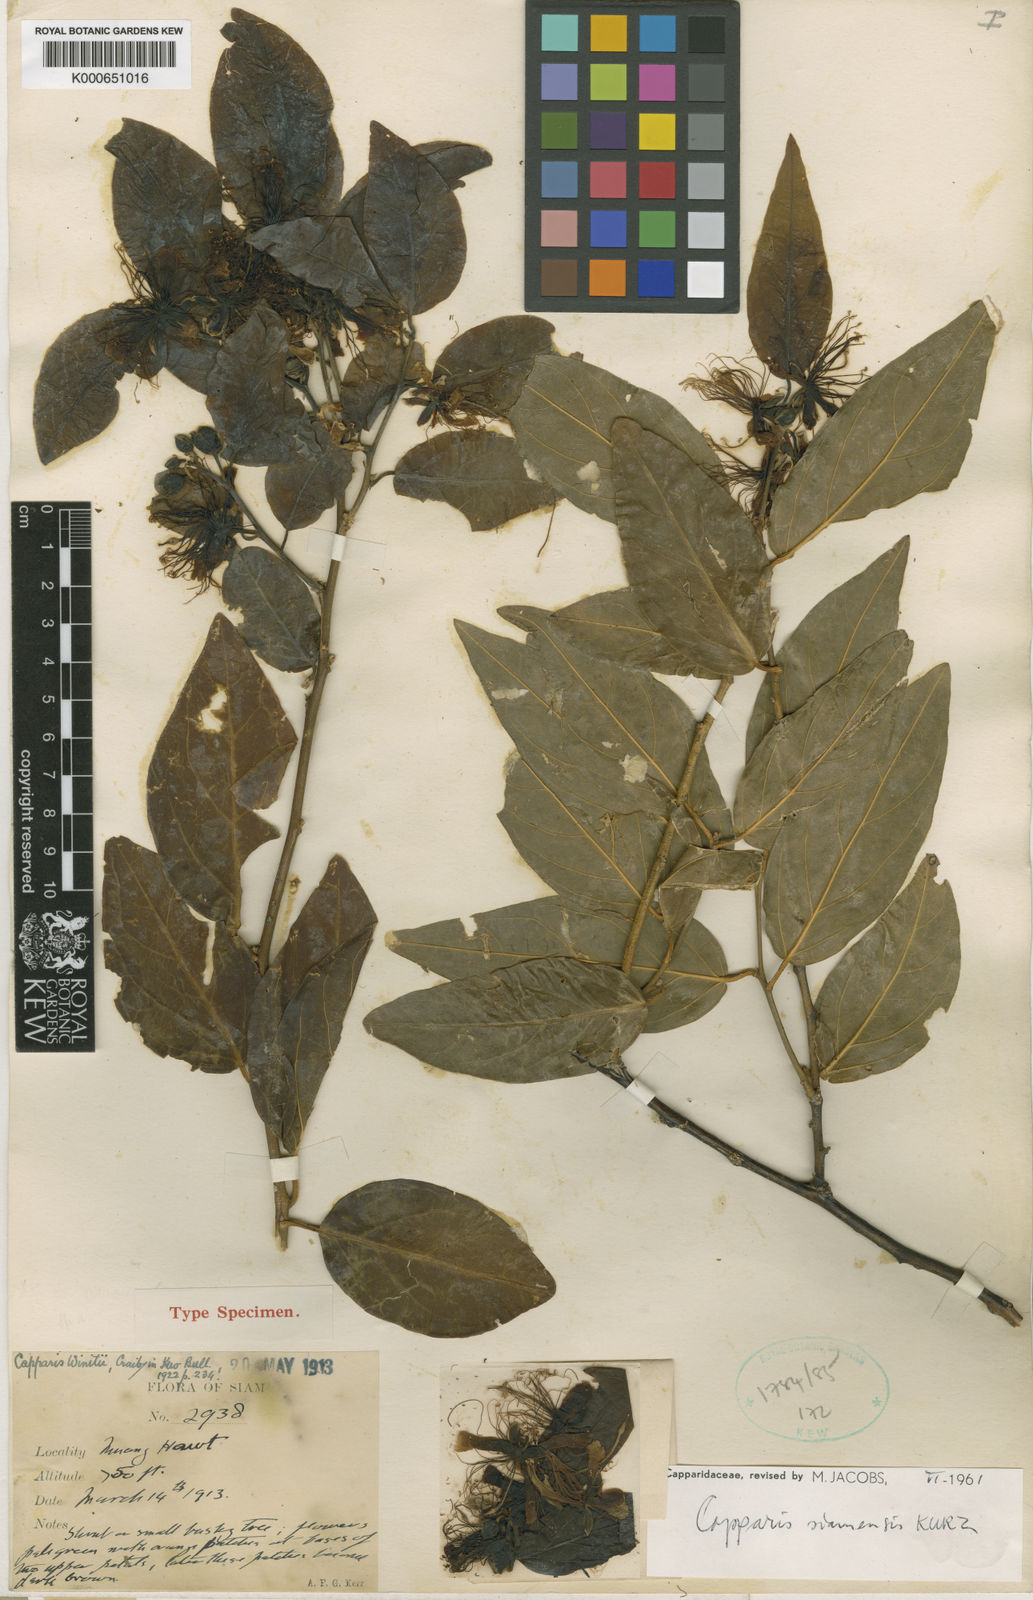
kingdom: Plantae
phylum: Tracheophyta
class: Magnoliopsida
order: Brassicales
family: Capparaceae
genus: Capparis
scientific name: Capparis siamensis
